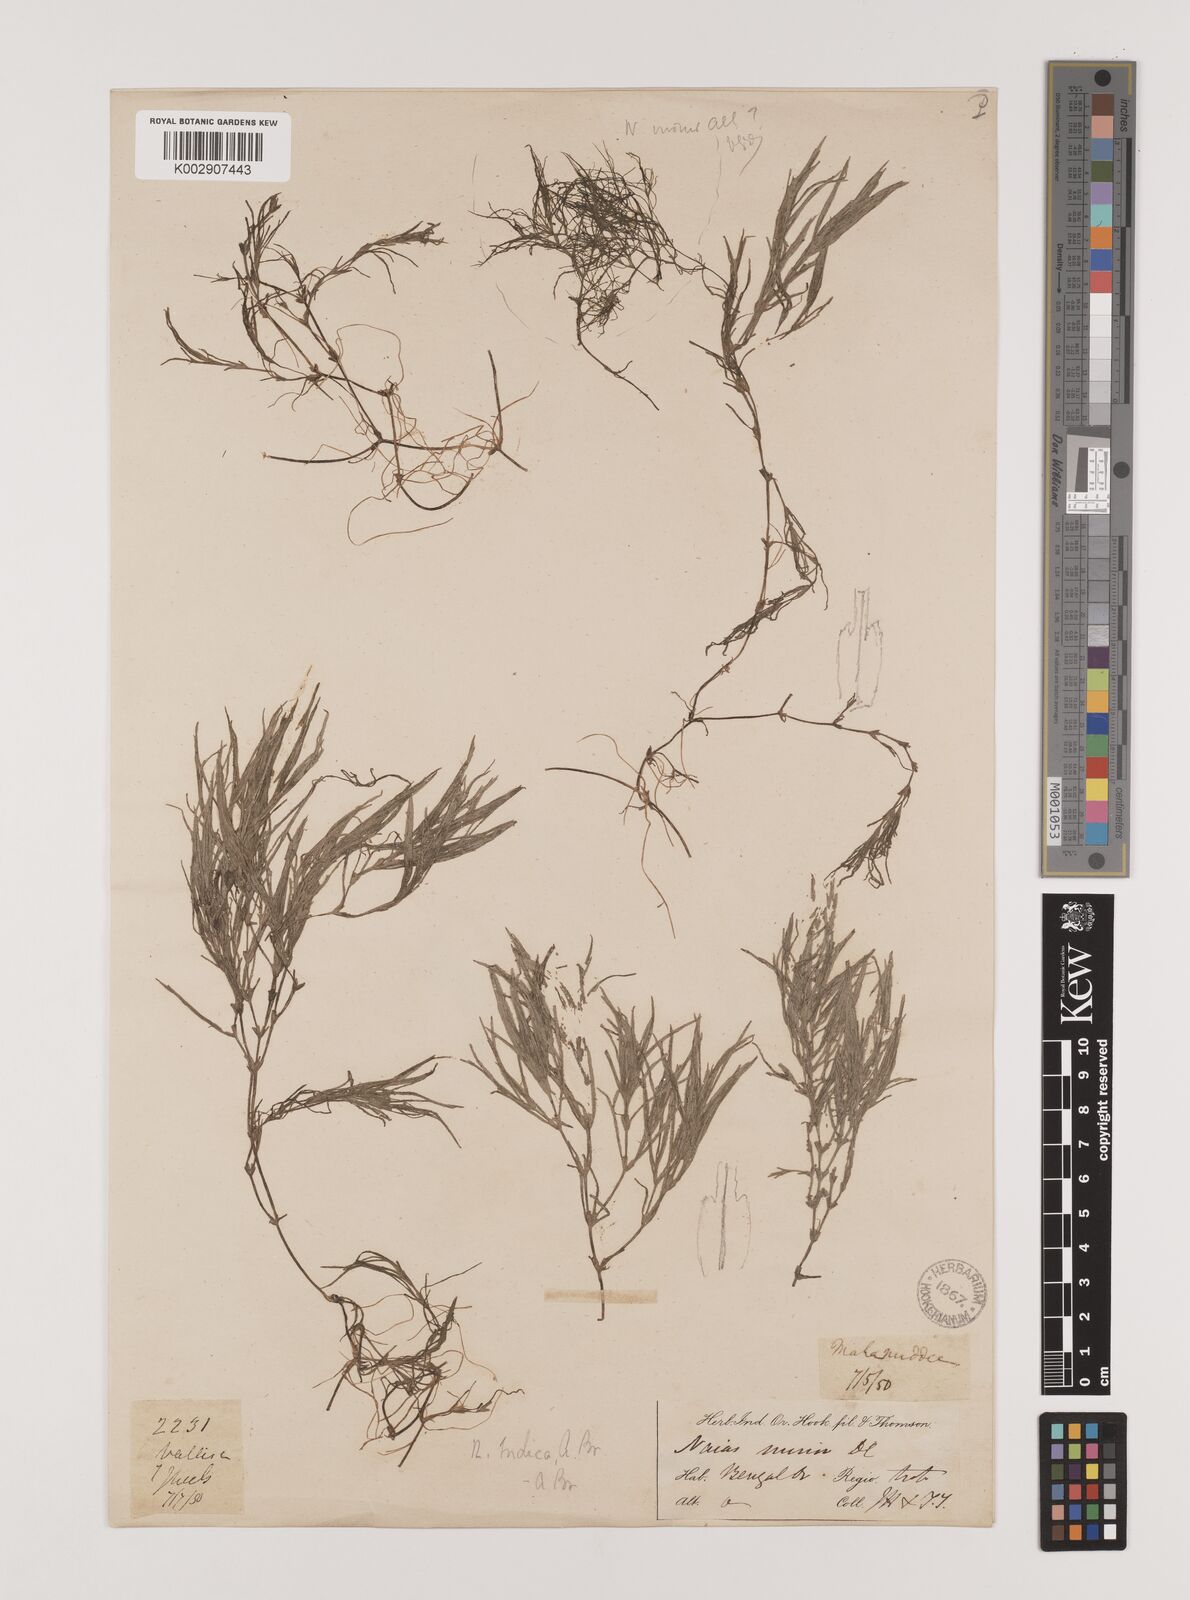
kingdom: Plantae
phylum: Tracheophyta
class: Liliopsida
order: Alismatales
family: Hydrocharitaceae
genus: Najas
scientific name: Najas indica
